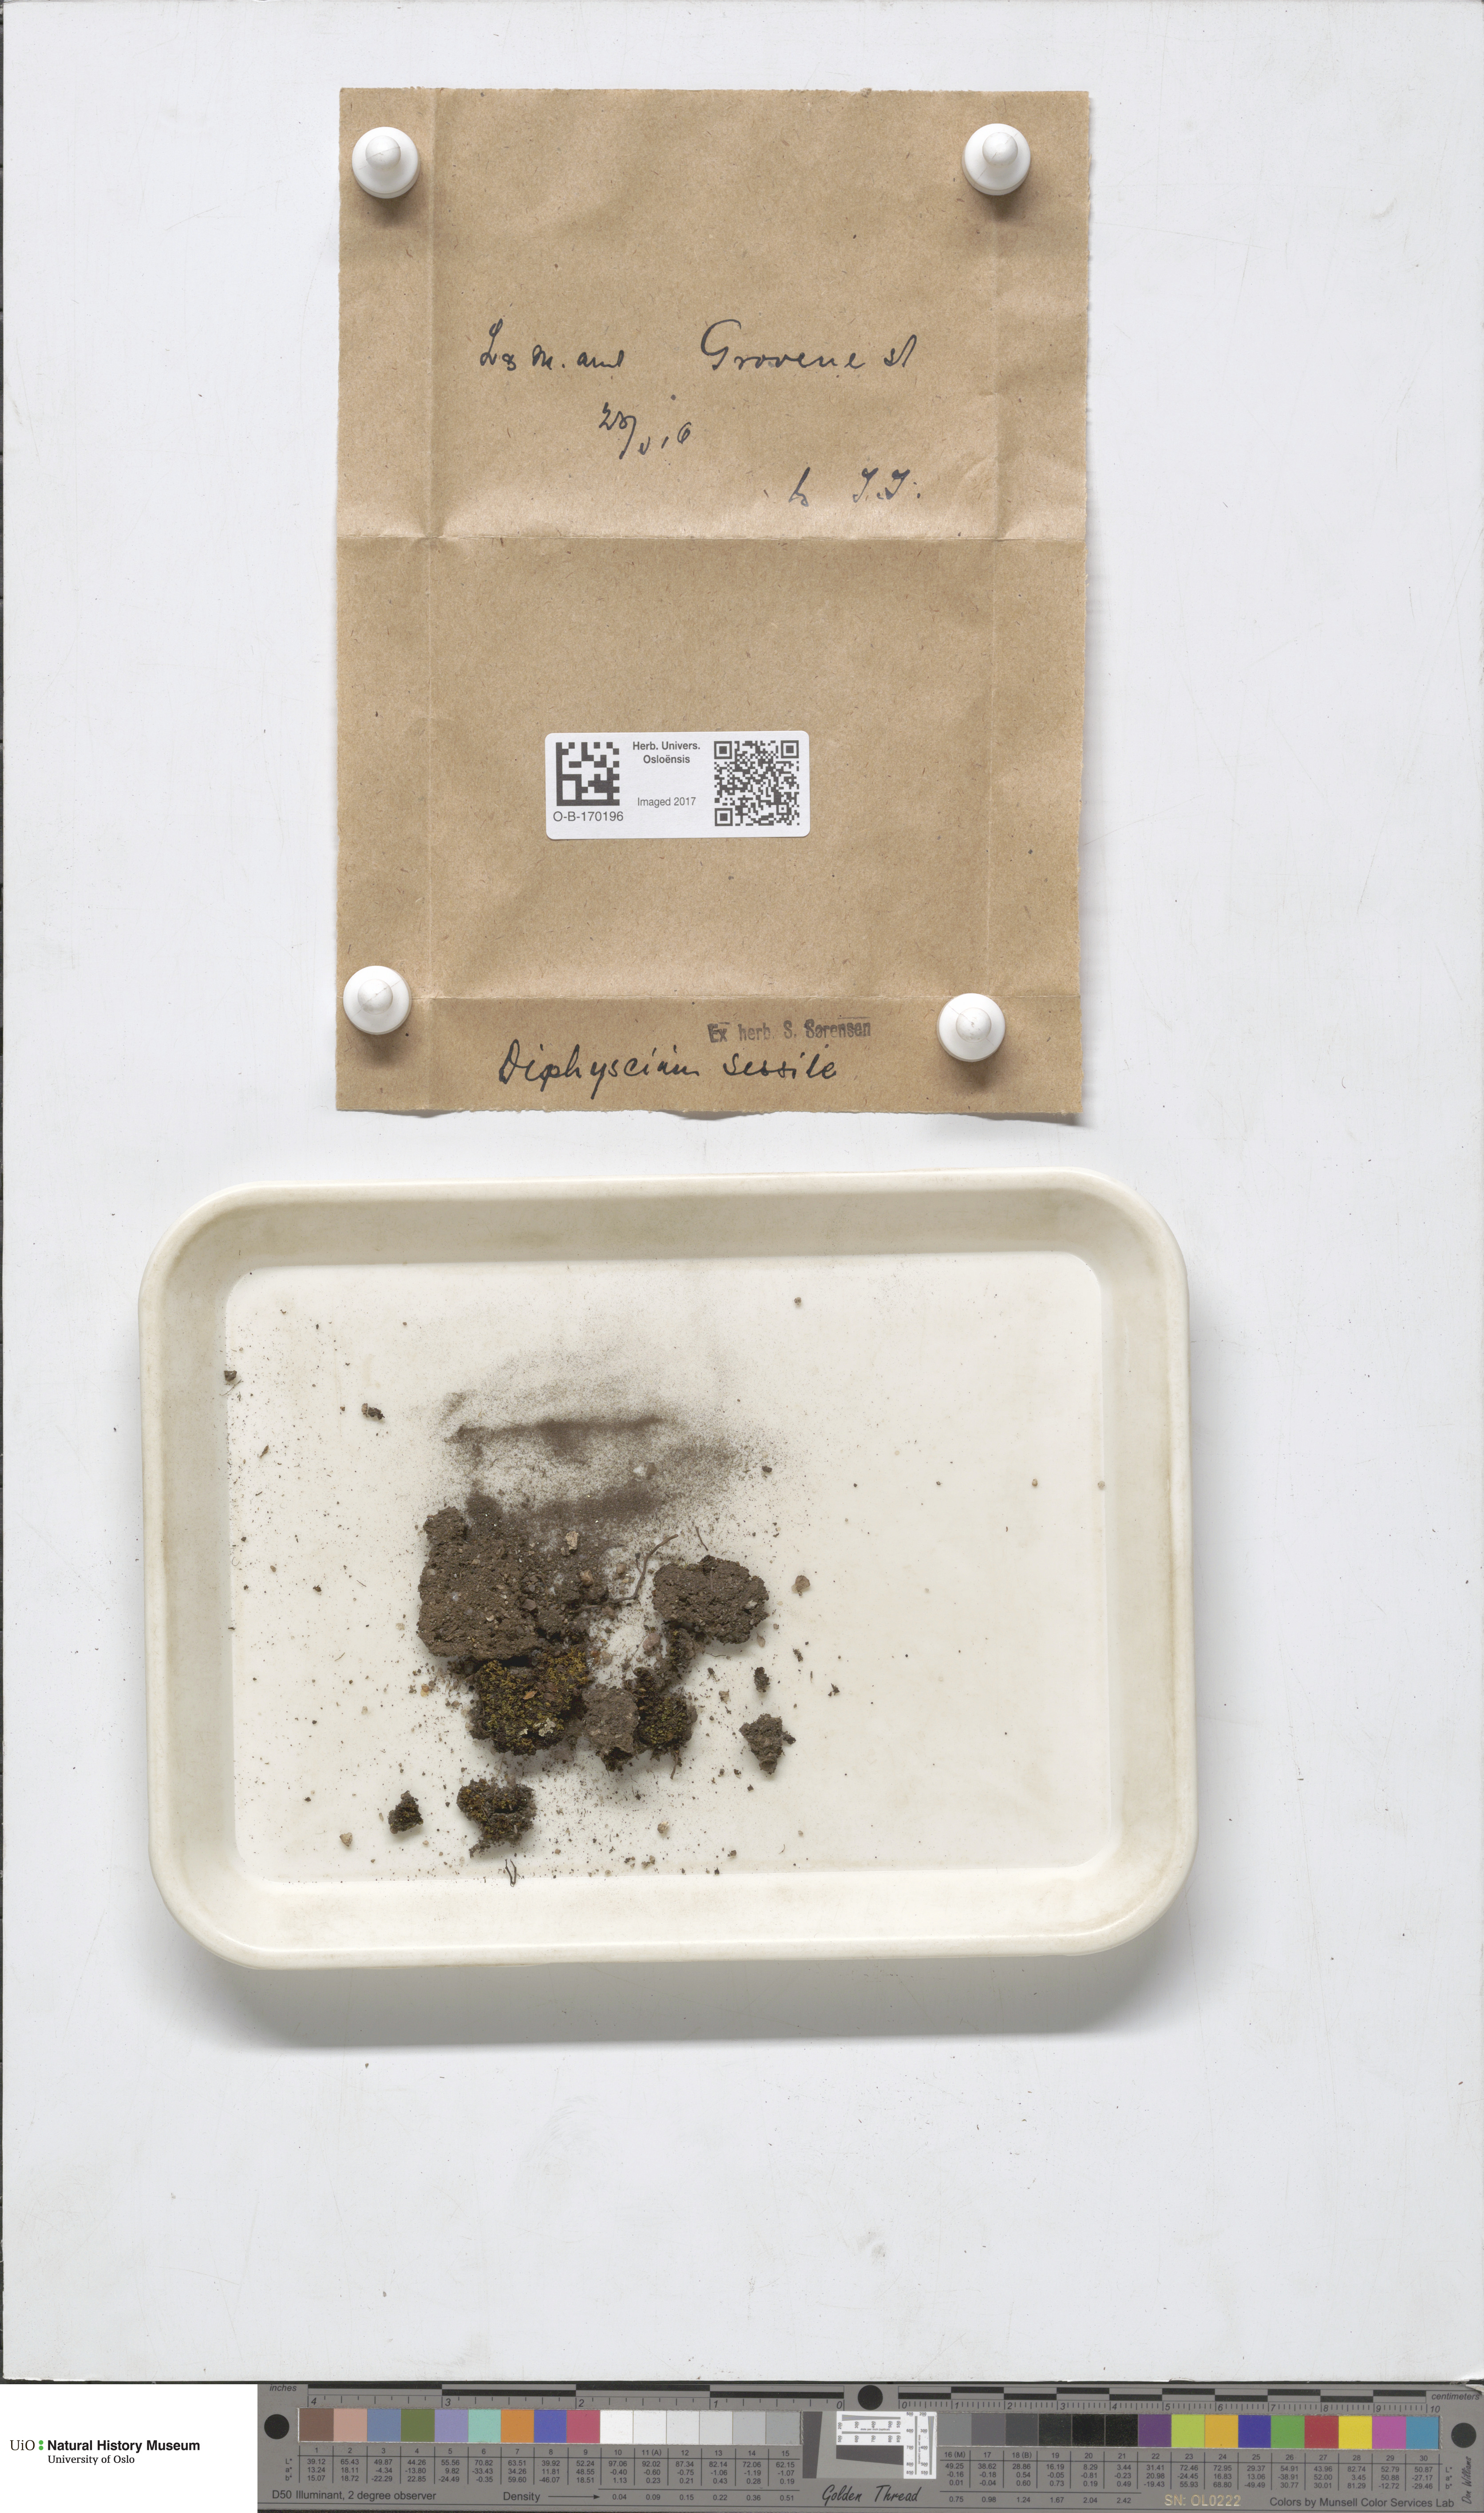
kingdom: Plantae
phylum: Bryophyta
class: Bryopsida
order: Diphysciales
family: Diphysciaceae
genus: Diphyscium
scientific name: Diphyscium foliosum
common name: Nut moss
